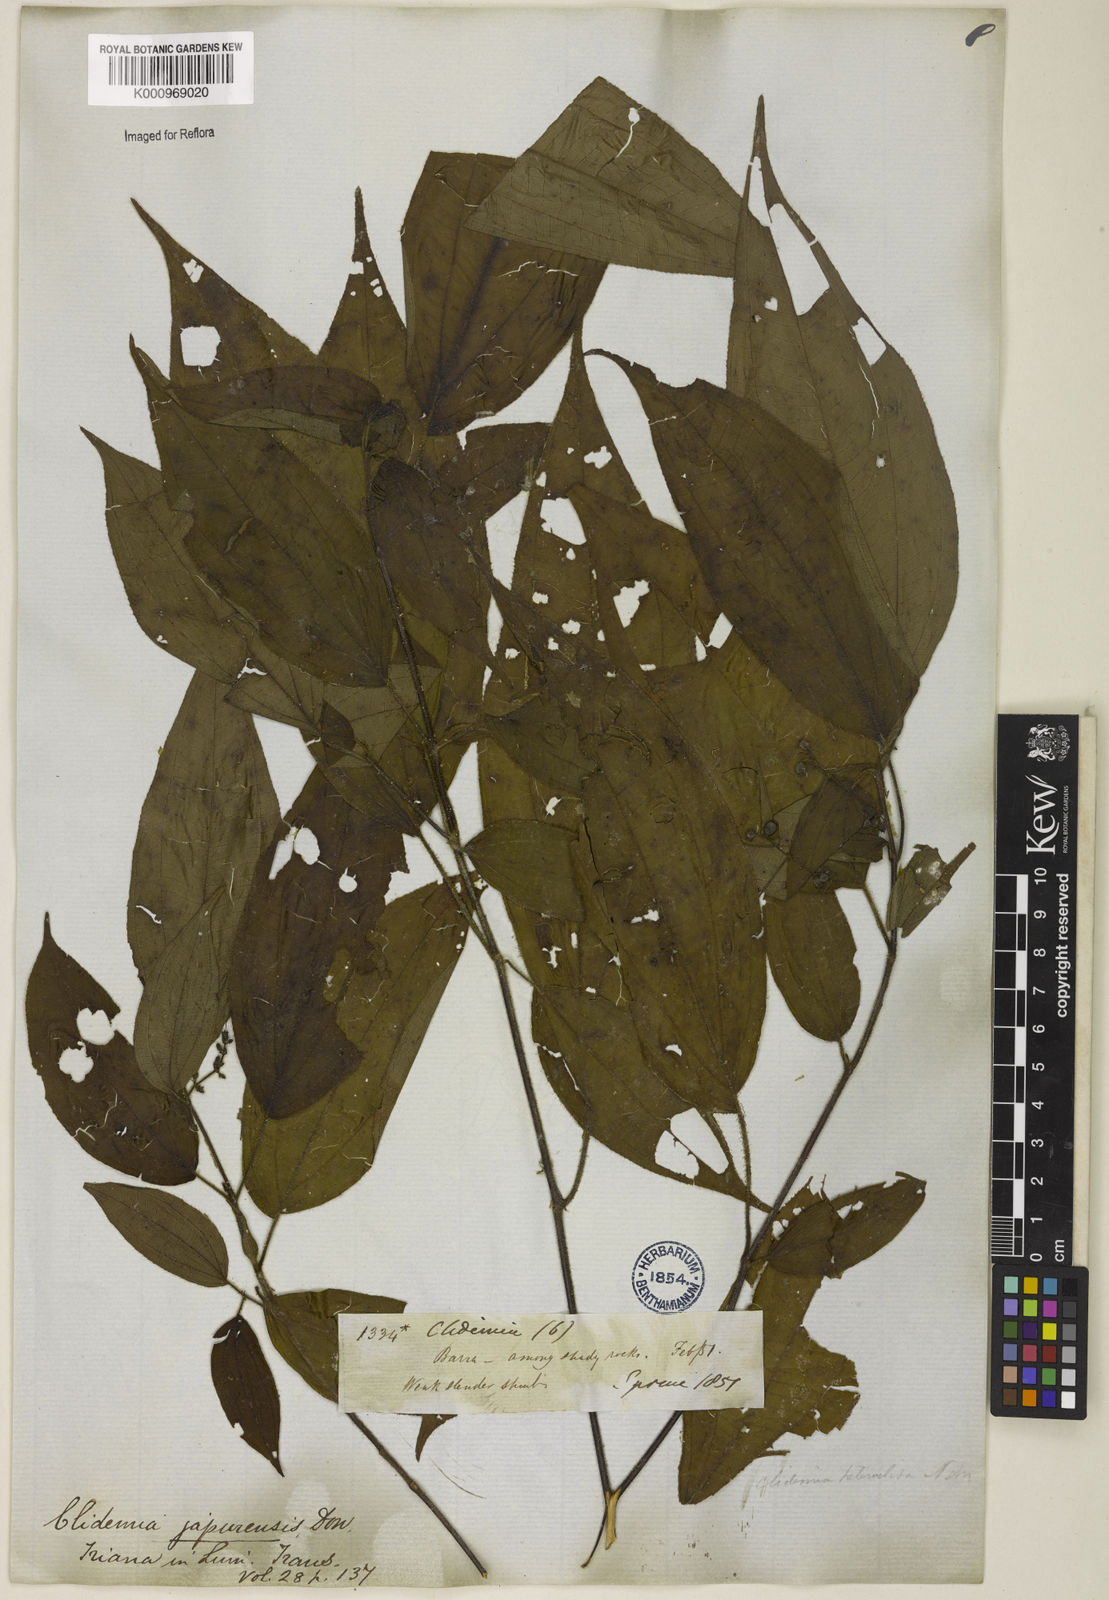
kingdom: Plantae
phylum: Tracheophyta
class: Magnoliopsida
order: Myrtales
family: Melastomataceae
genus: Miconia
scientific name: Miconia heteroclita
